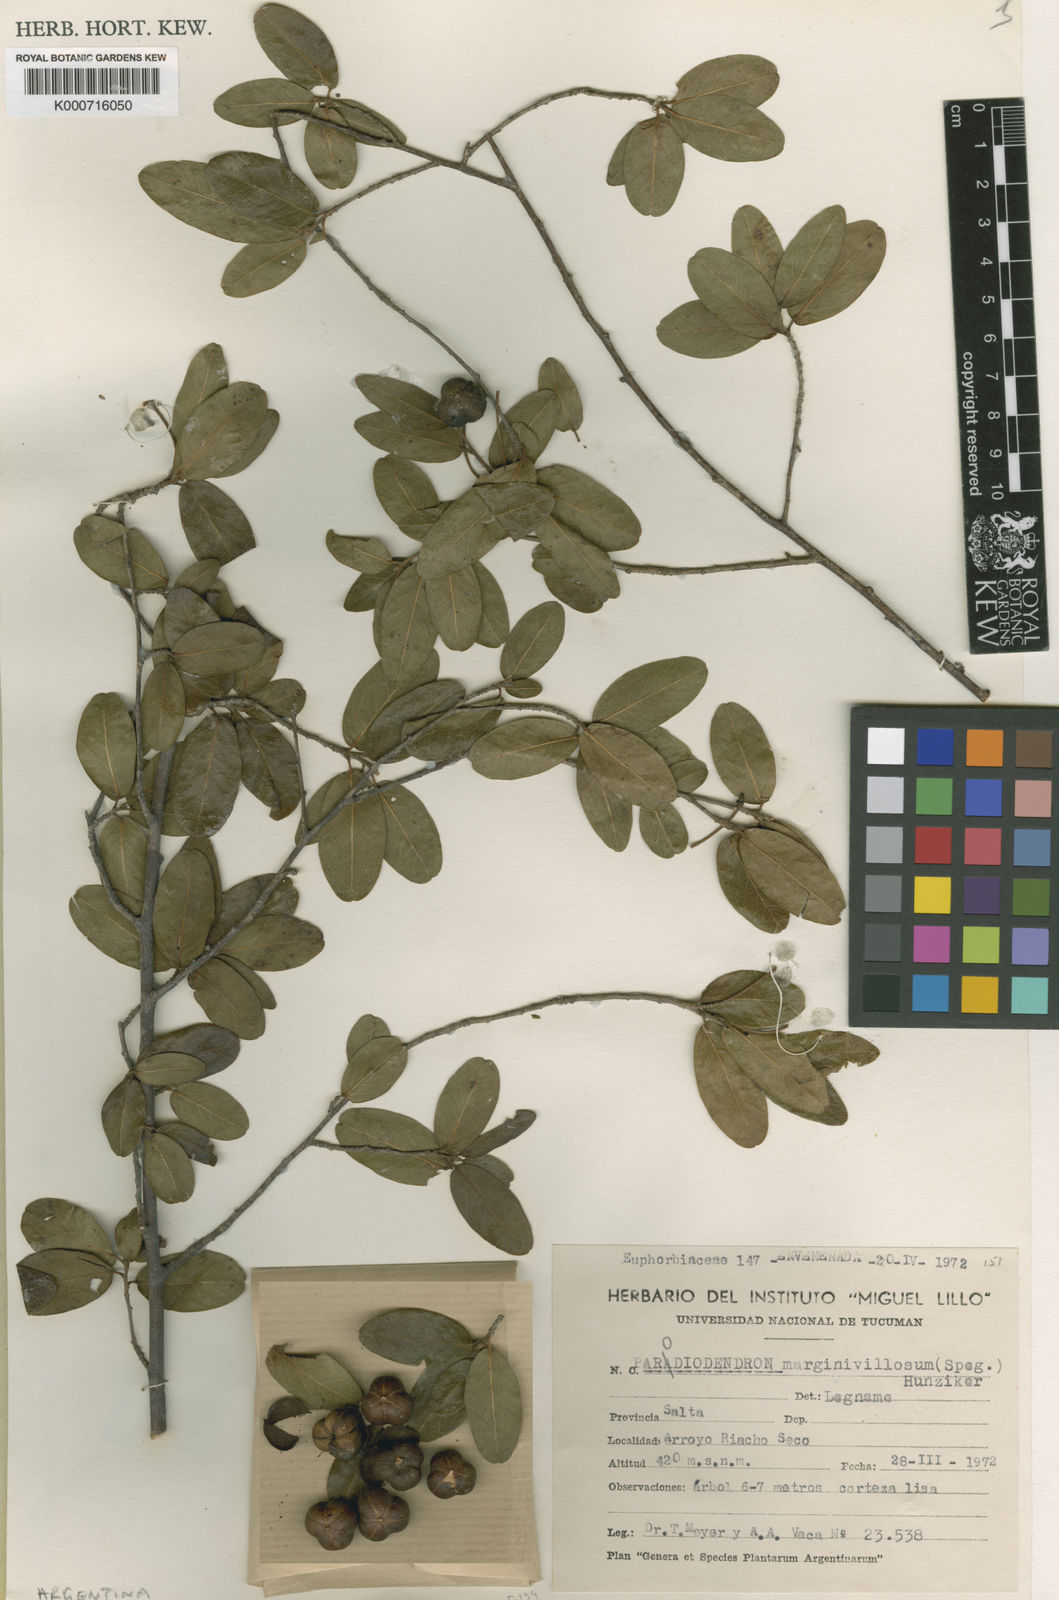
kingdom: Plantae
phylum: Tracheophyta
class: Magnoliopsida
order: Malpighiales
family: Picrodendraceae
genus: Parodiodendron
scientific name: Parodiodendron marginivillosum
